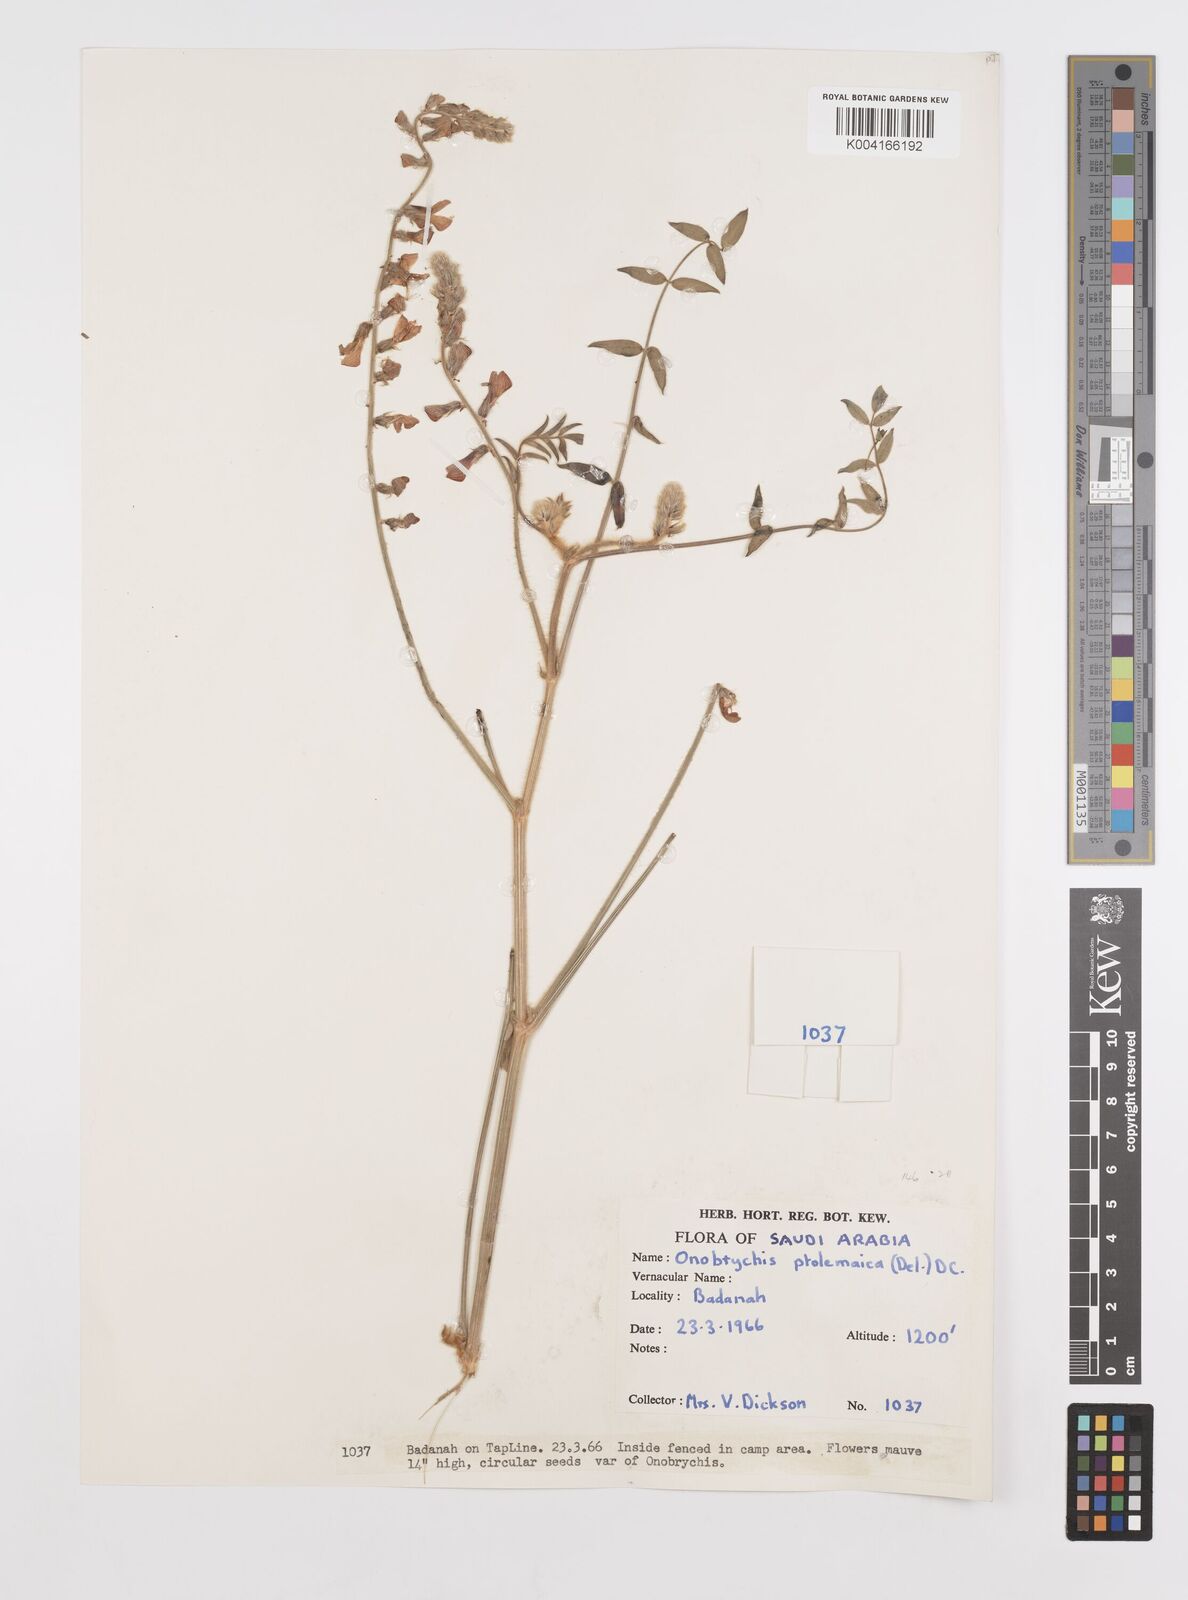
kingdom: Plantae
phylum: Tracheophyta
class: Magnoliopsida
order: Fabales
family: Fabaceae
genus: Onobrychis
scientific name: Onobrychis ptolemaica
